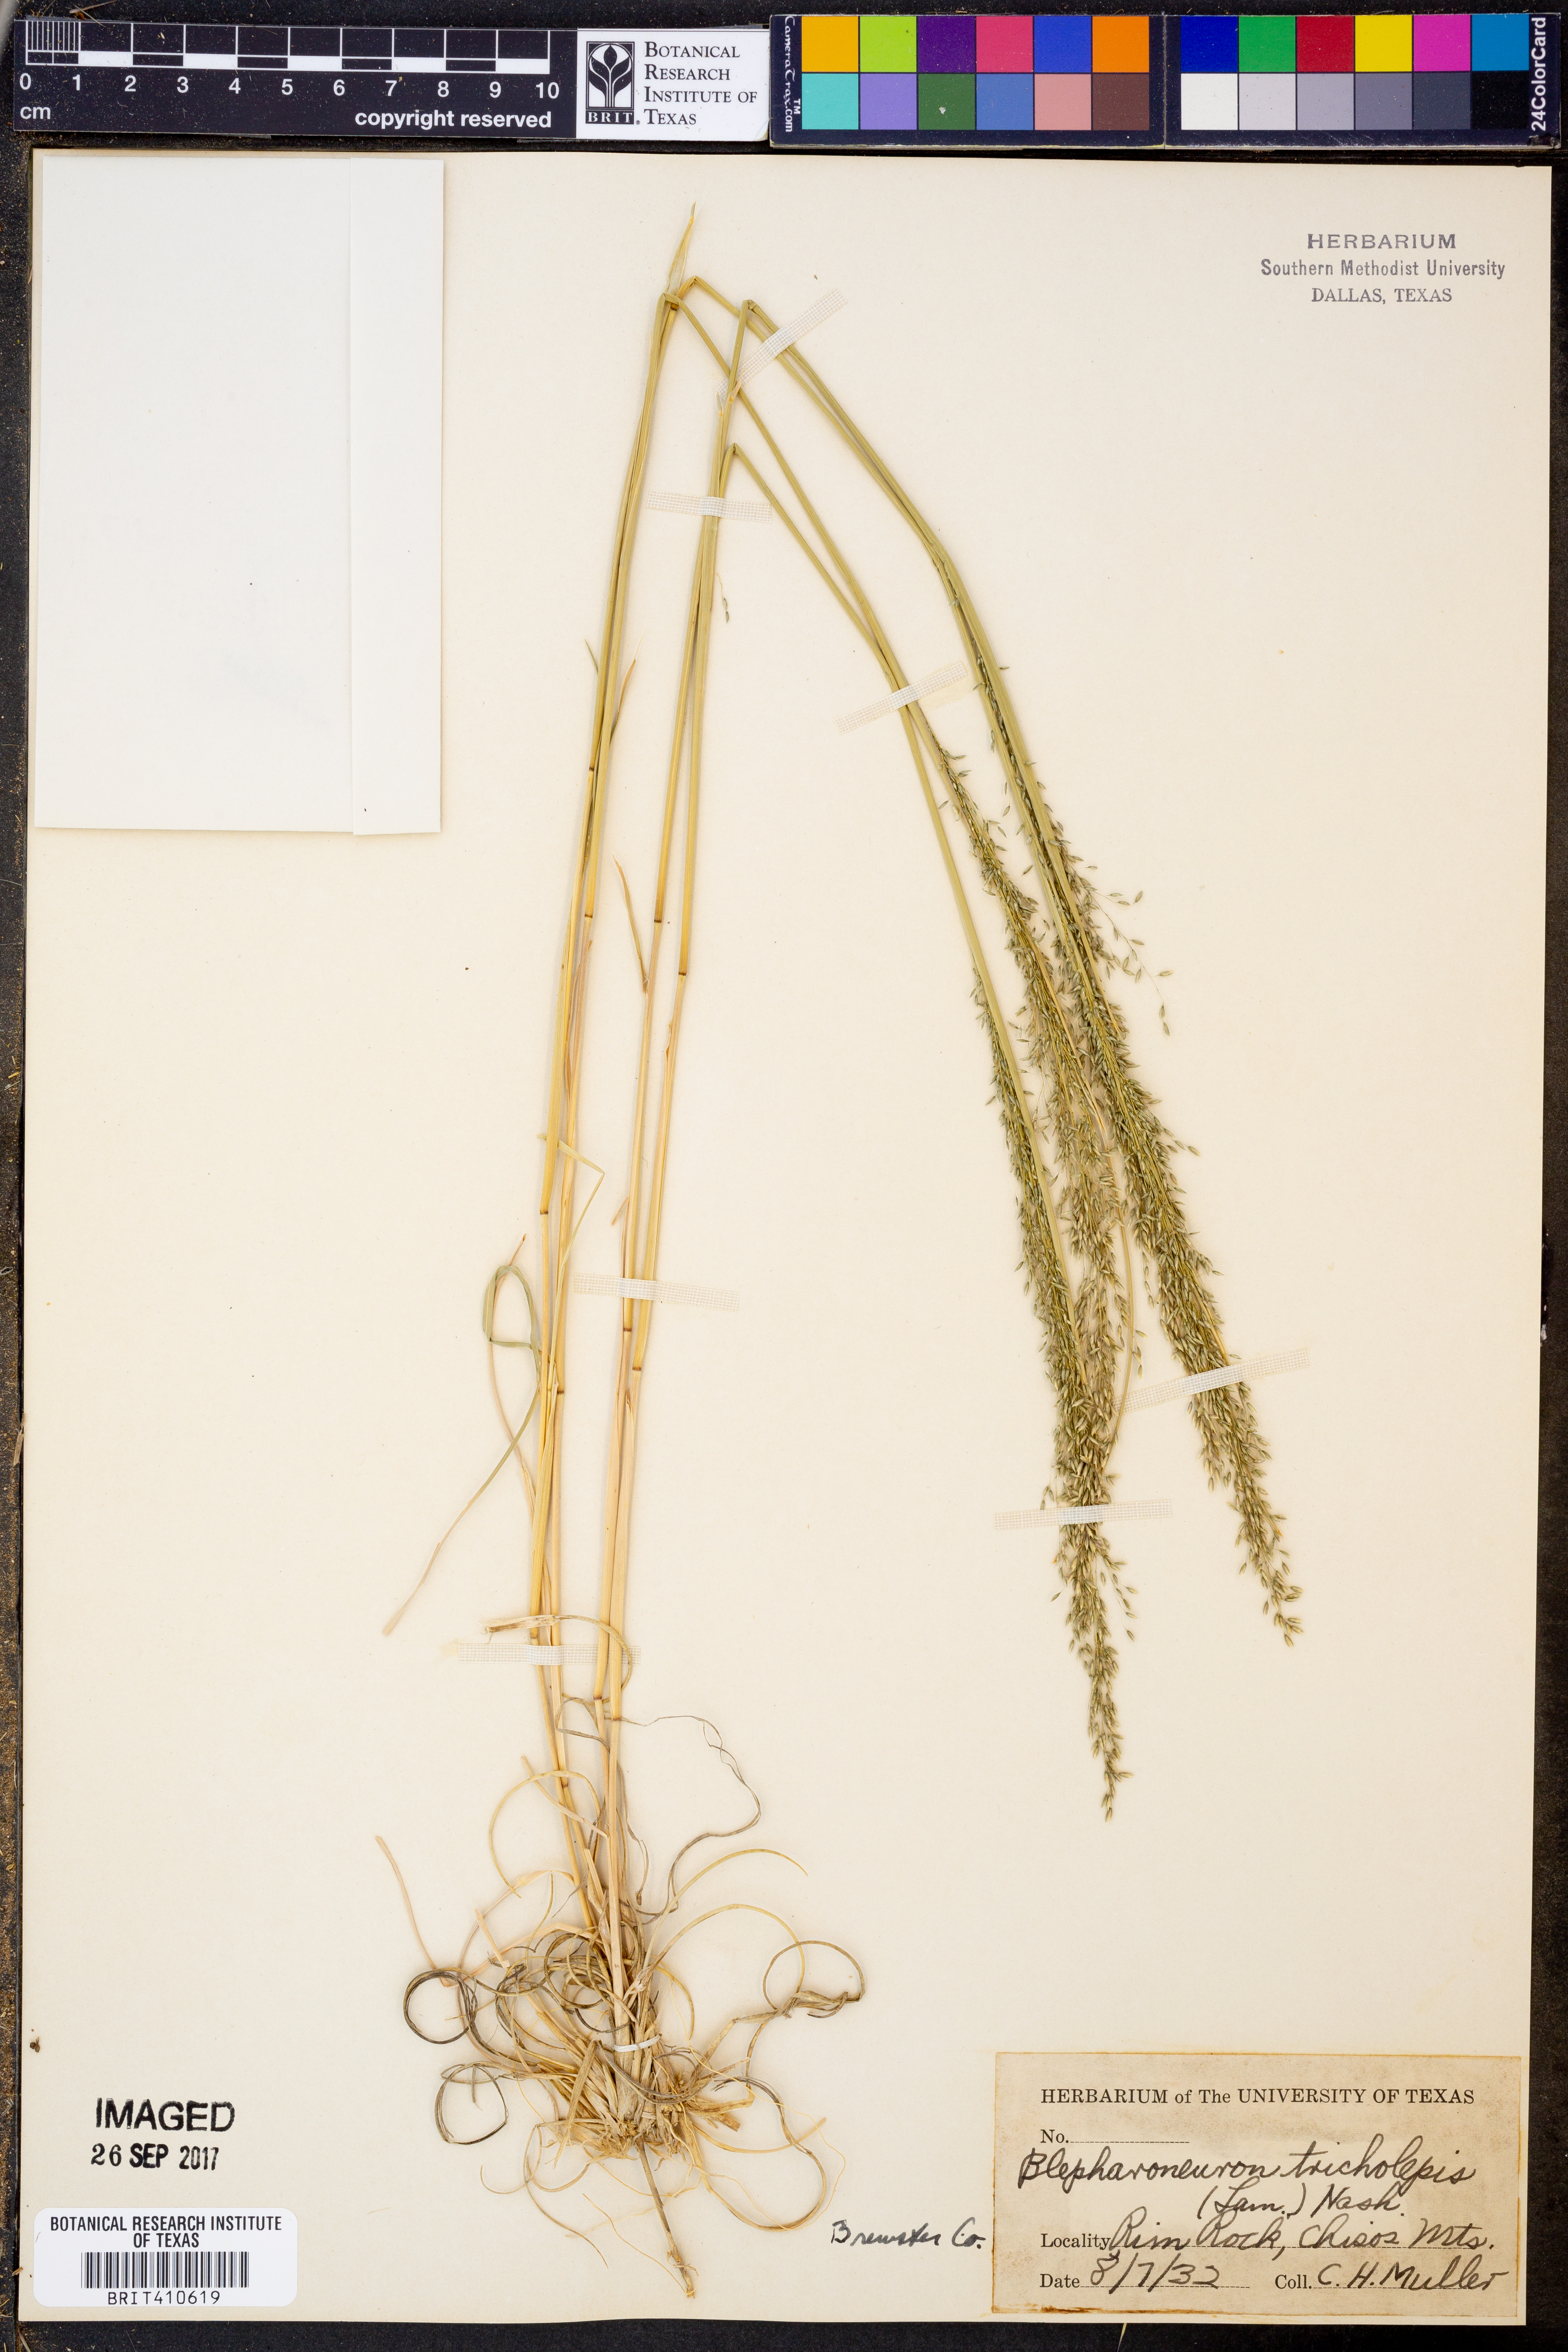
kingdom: Plantae
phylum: Tracheophyta
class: Liliopsida
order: Poales
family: Poaceae
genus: Muhlenbergia
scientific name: Muhlenbergia tricholepis
